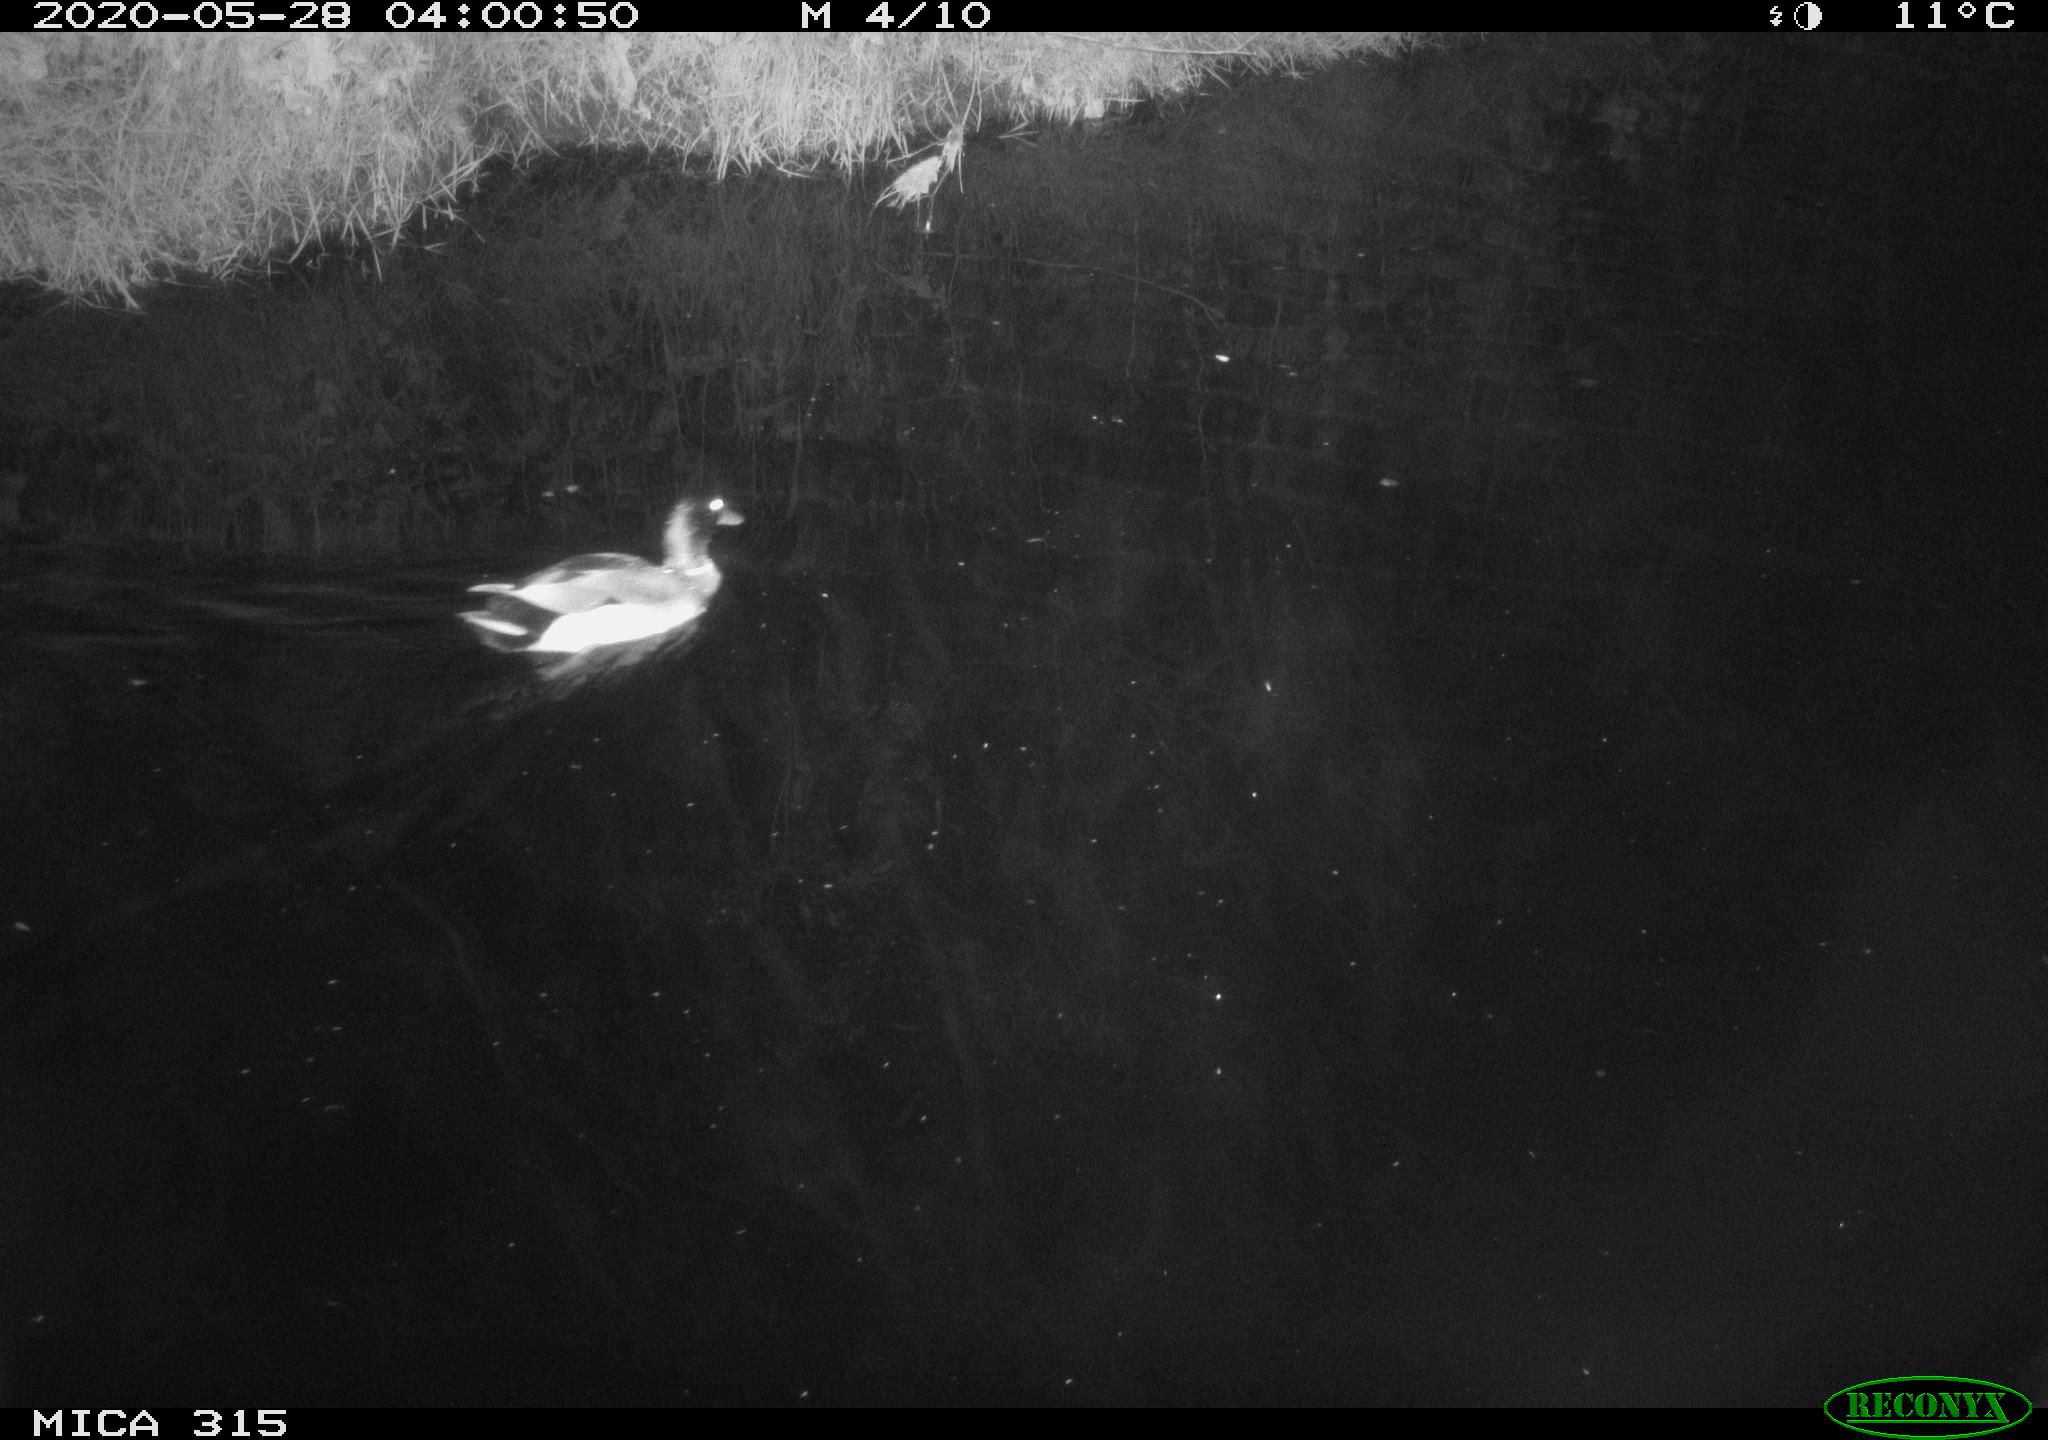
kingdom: Animalia
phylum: Chordata
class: Aves
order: Anseriformes
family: Anatidae
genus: Anas
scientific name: Anas platyrhynchos
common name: Mallard
